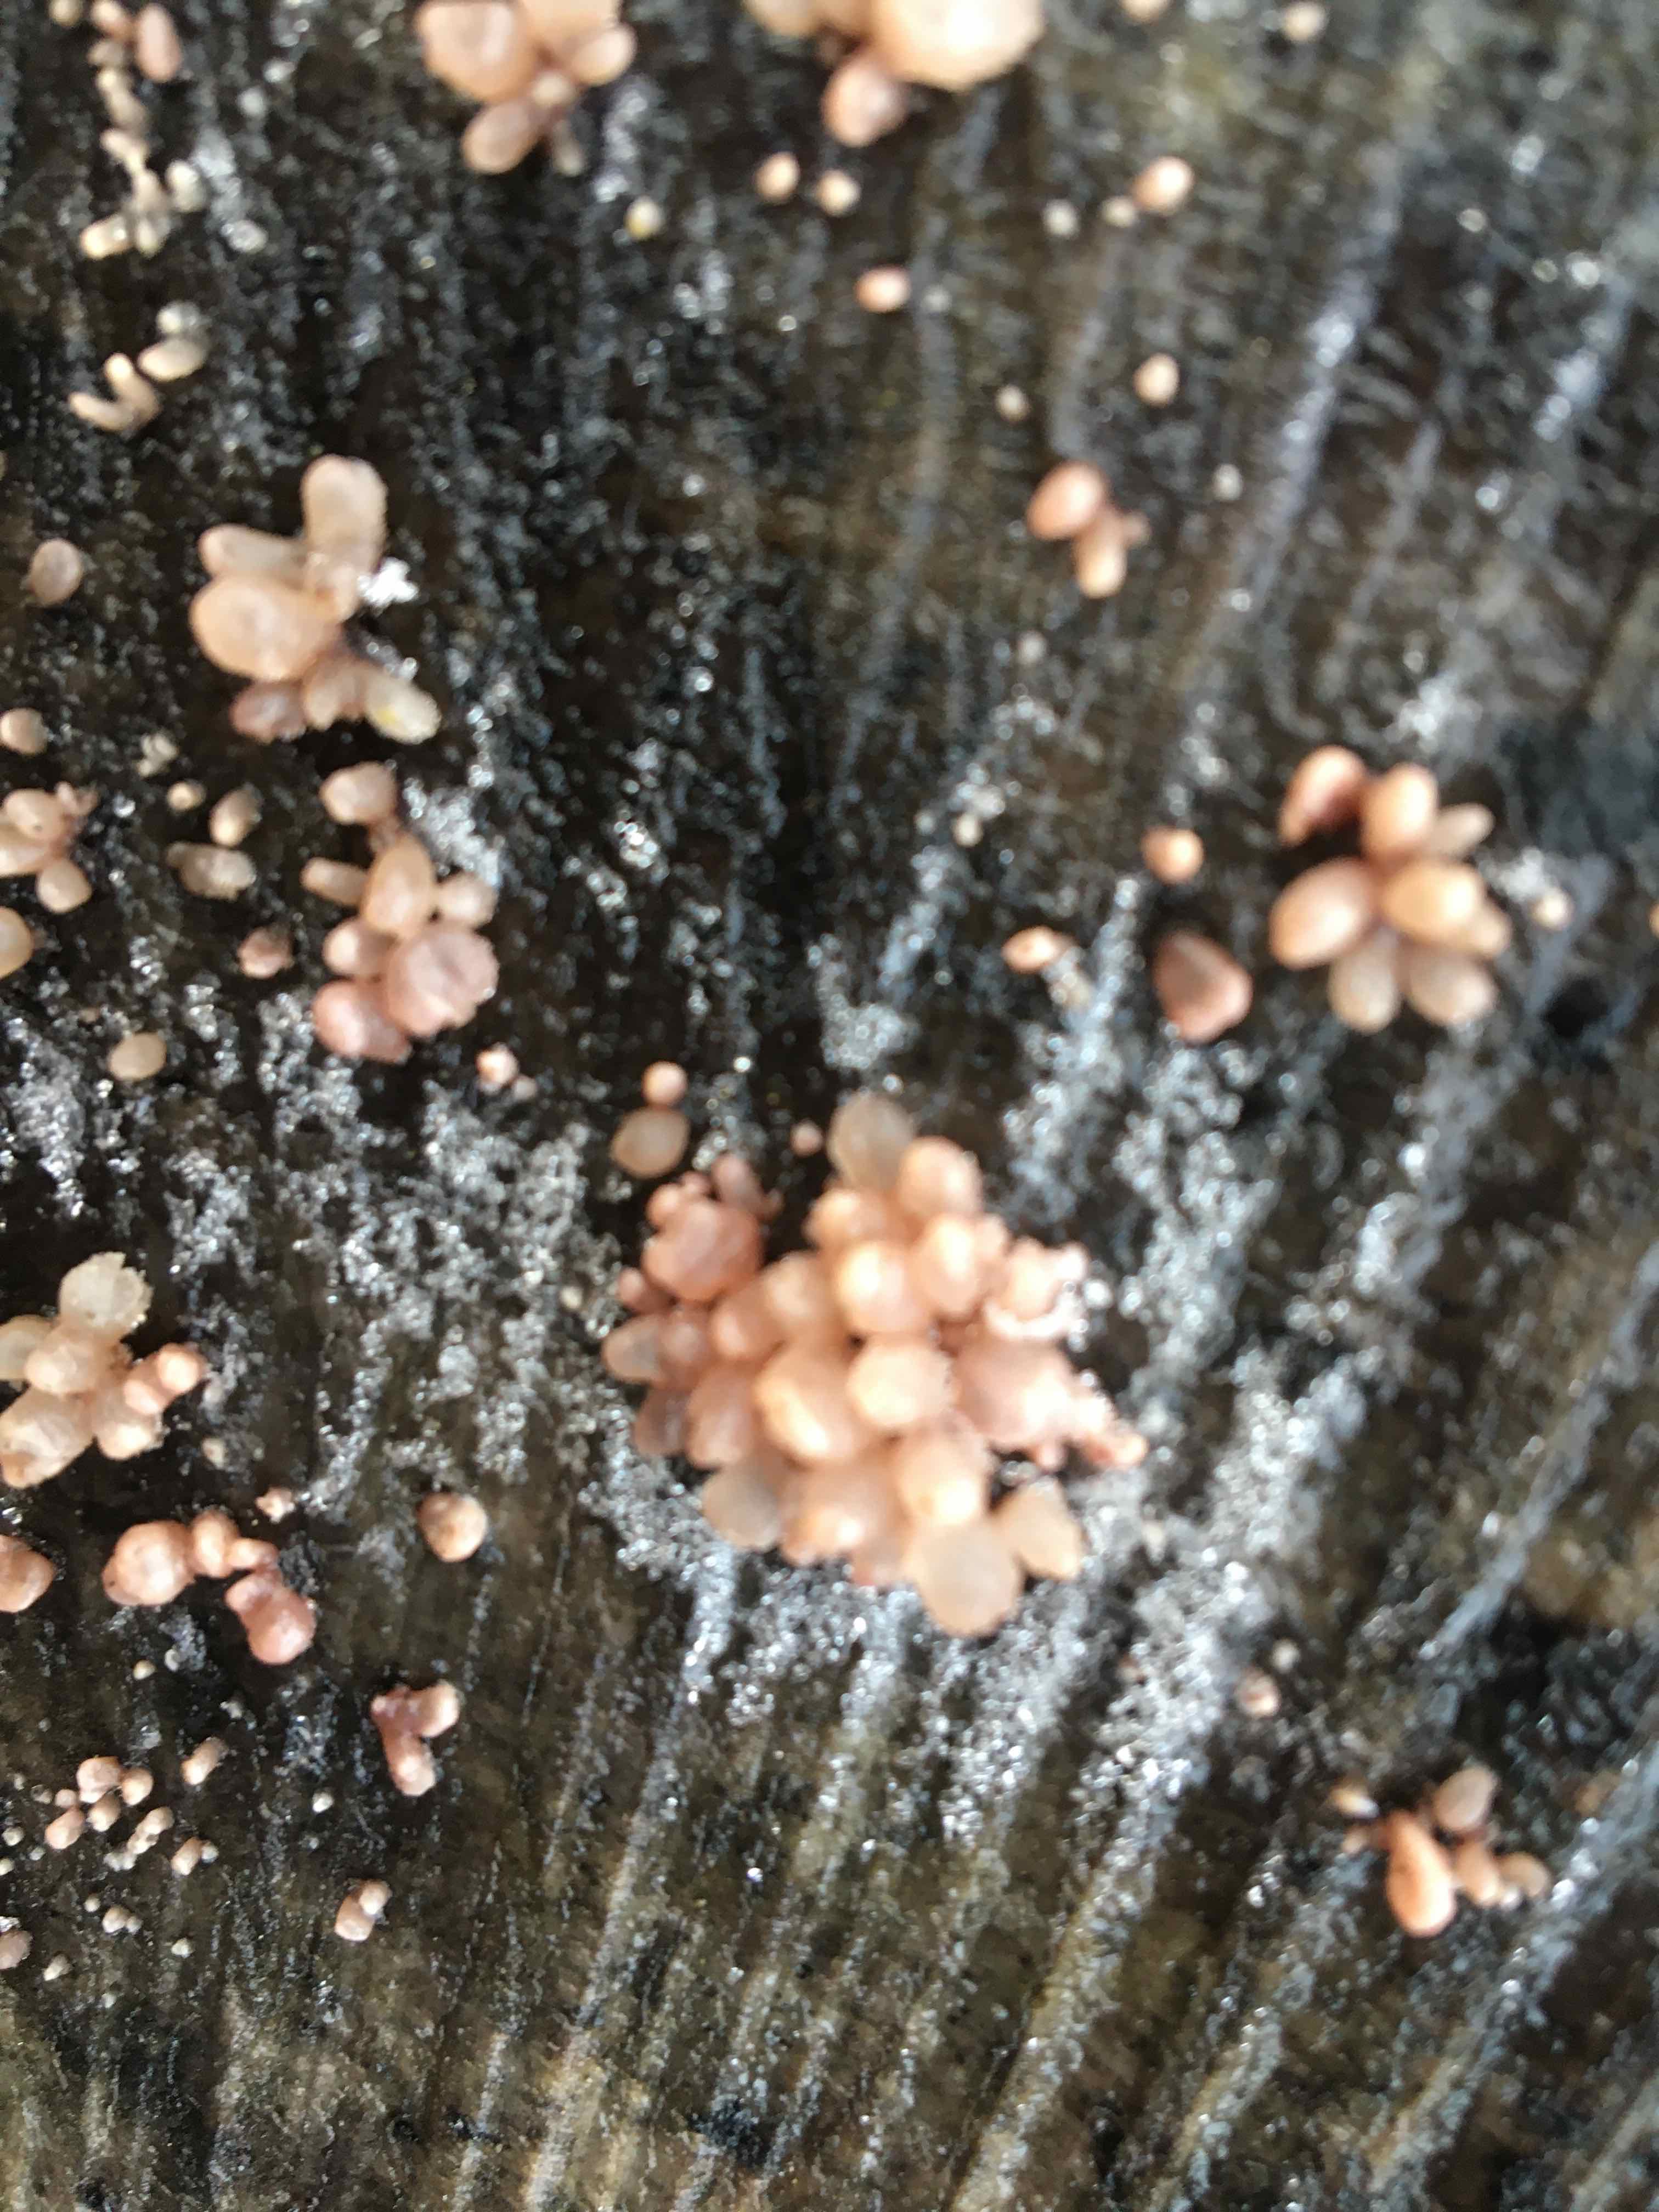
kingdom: Fungi
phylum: Ascomycota
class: Leotiomycetes
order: Helotiales
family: Gelatinodiscaceae
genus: Neobulgaria
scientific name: Neobulgaria pura
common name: bleg bævreskive
